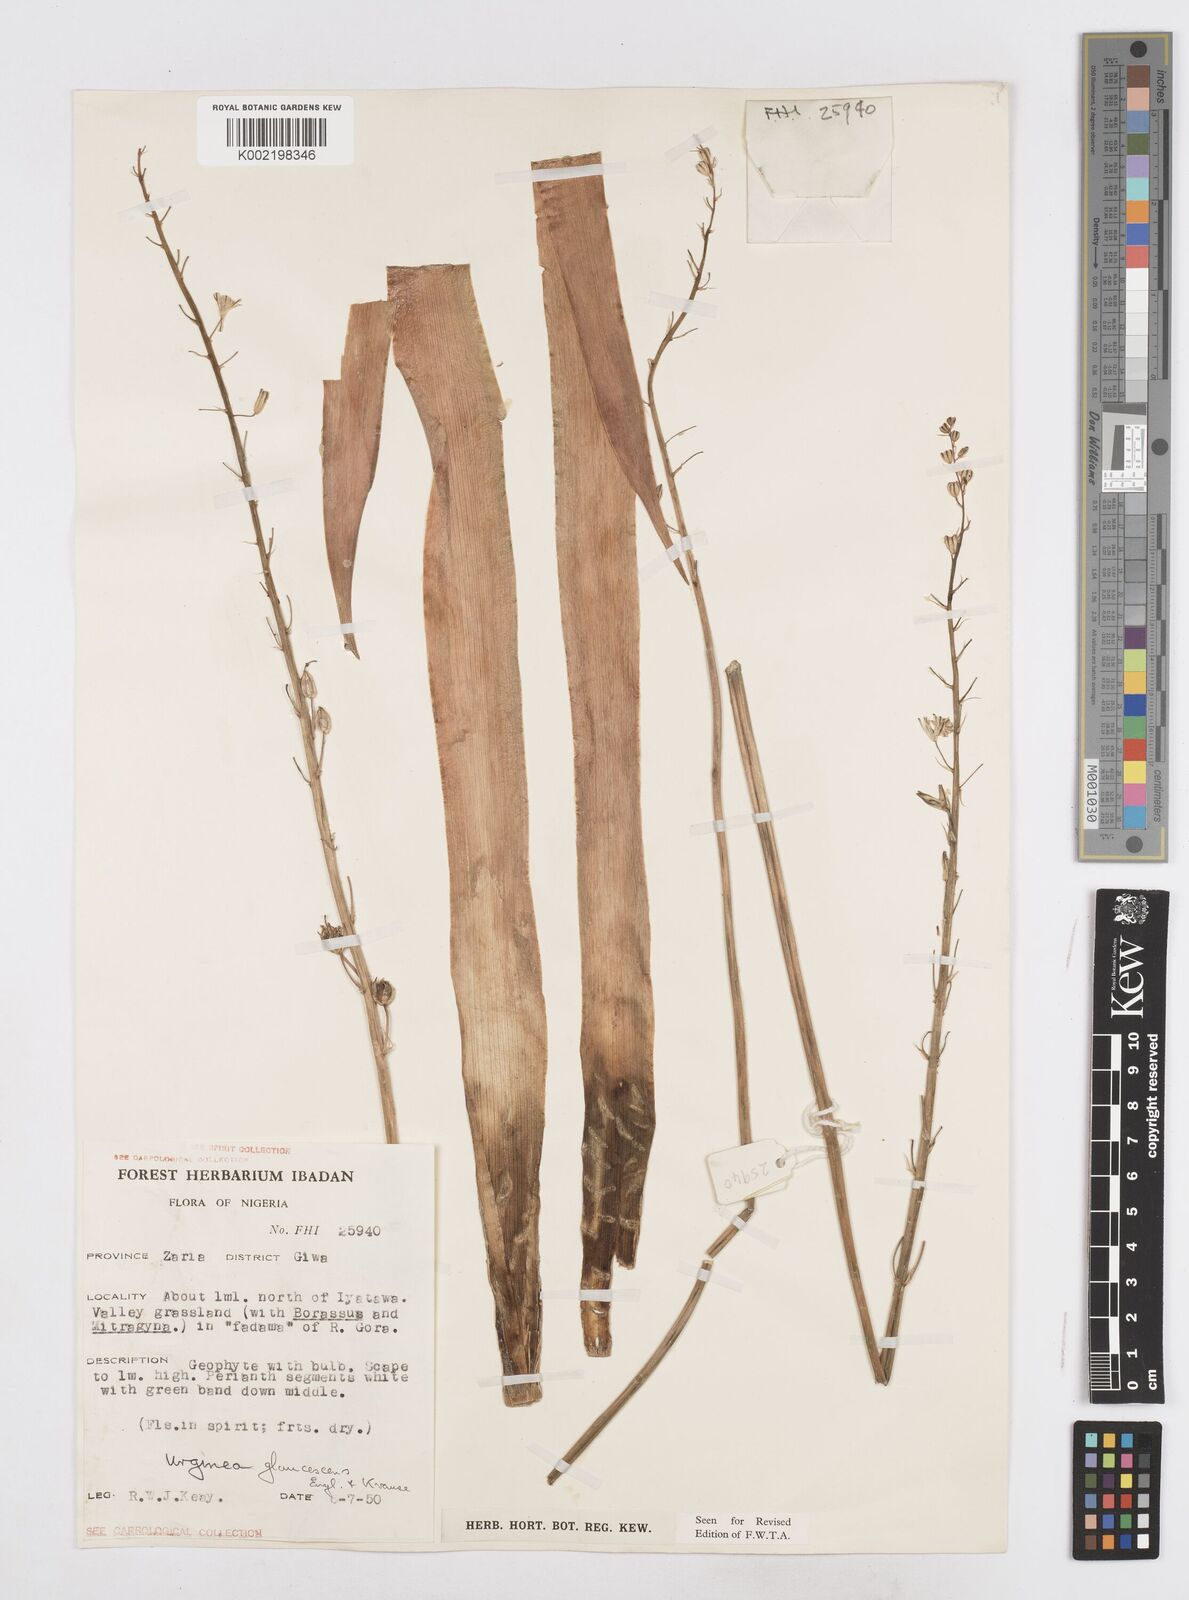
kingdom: Plantae
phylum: Tracheophyta
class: Liliopsida
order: Asparagales
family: Asparagaceae
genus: Ledebouria
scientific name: Ledebouria ensifolia
